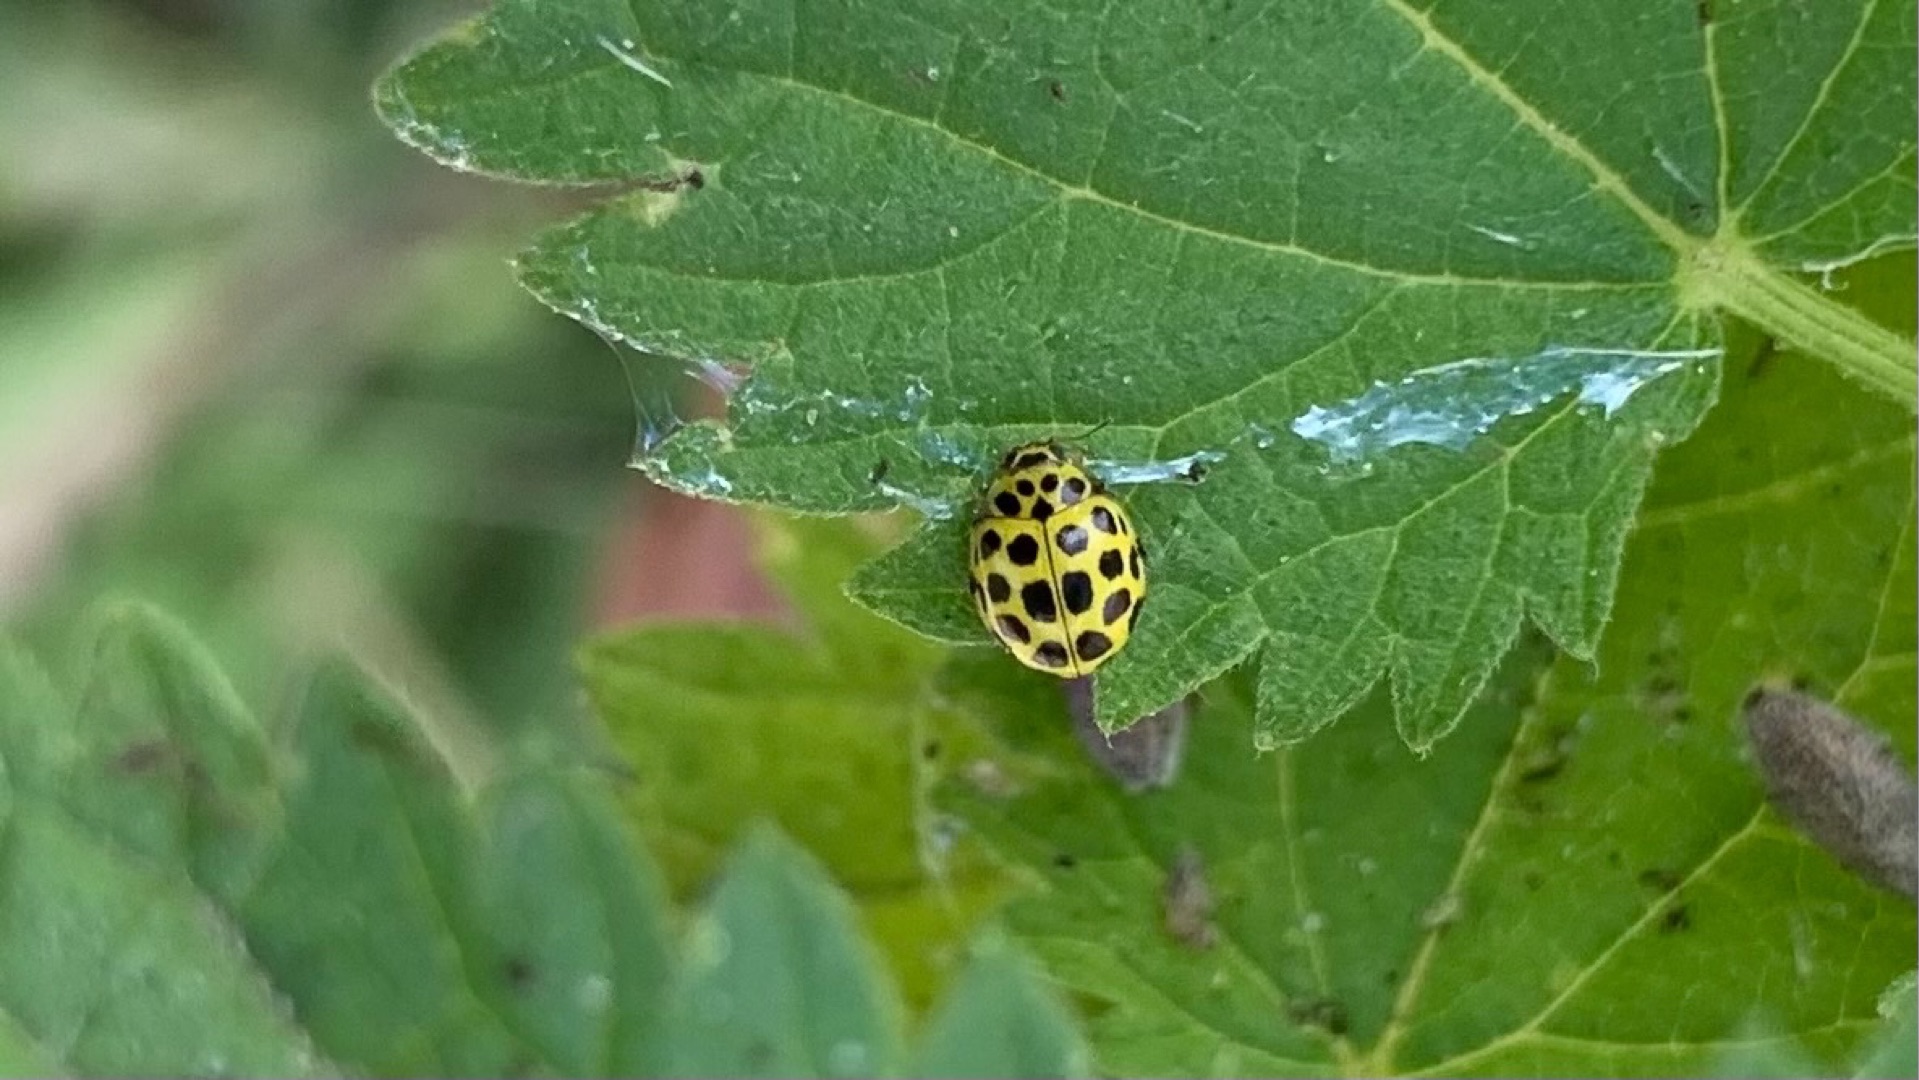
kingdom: Animalia
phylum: Arthropoda
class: Insecta
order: Coleoptera
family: Coccinellidae
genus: Psyllobora
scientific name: Psyllobora vigintiduopunctata
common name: Toogtyveplettet mariehøne
